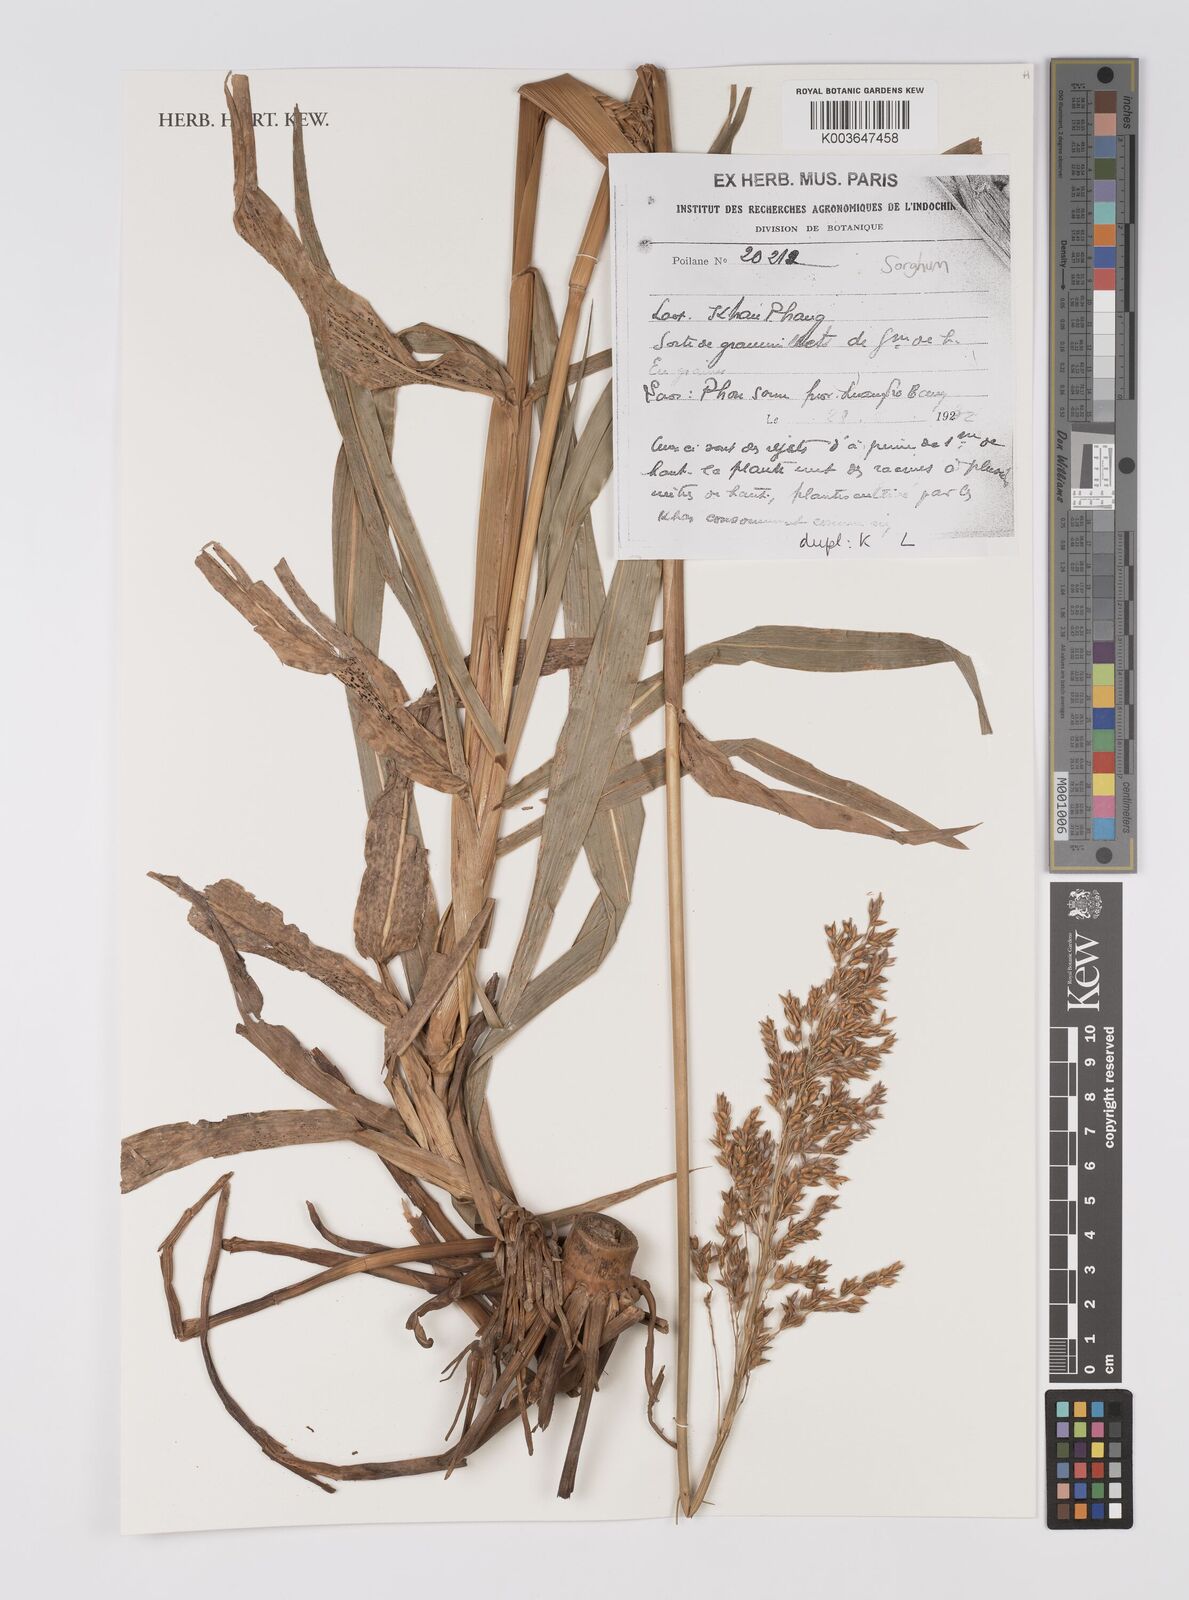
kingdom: Plantae
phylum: Tracheophyta
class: Liliopsida
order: Poales
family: Poaceae
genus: Sorghum
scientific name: Sorghum
